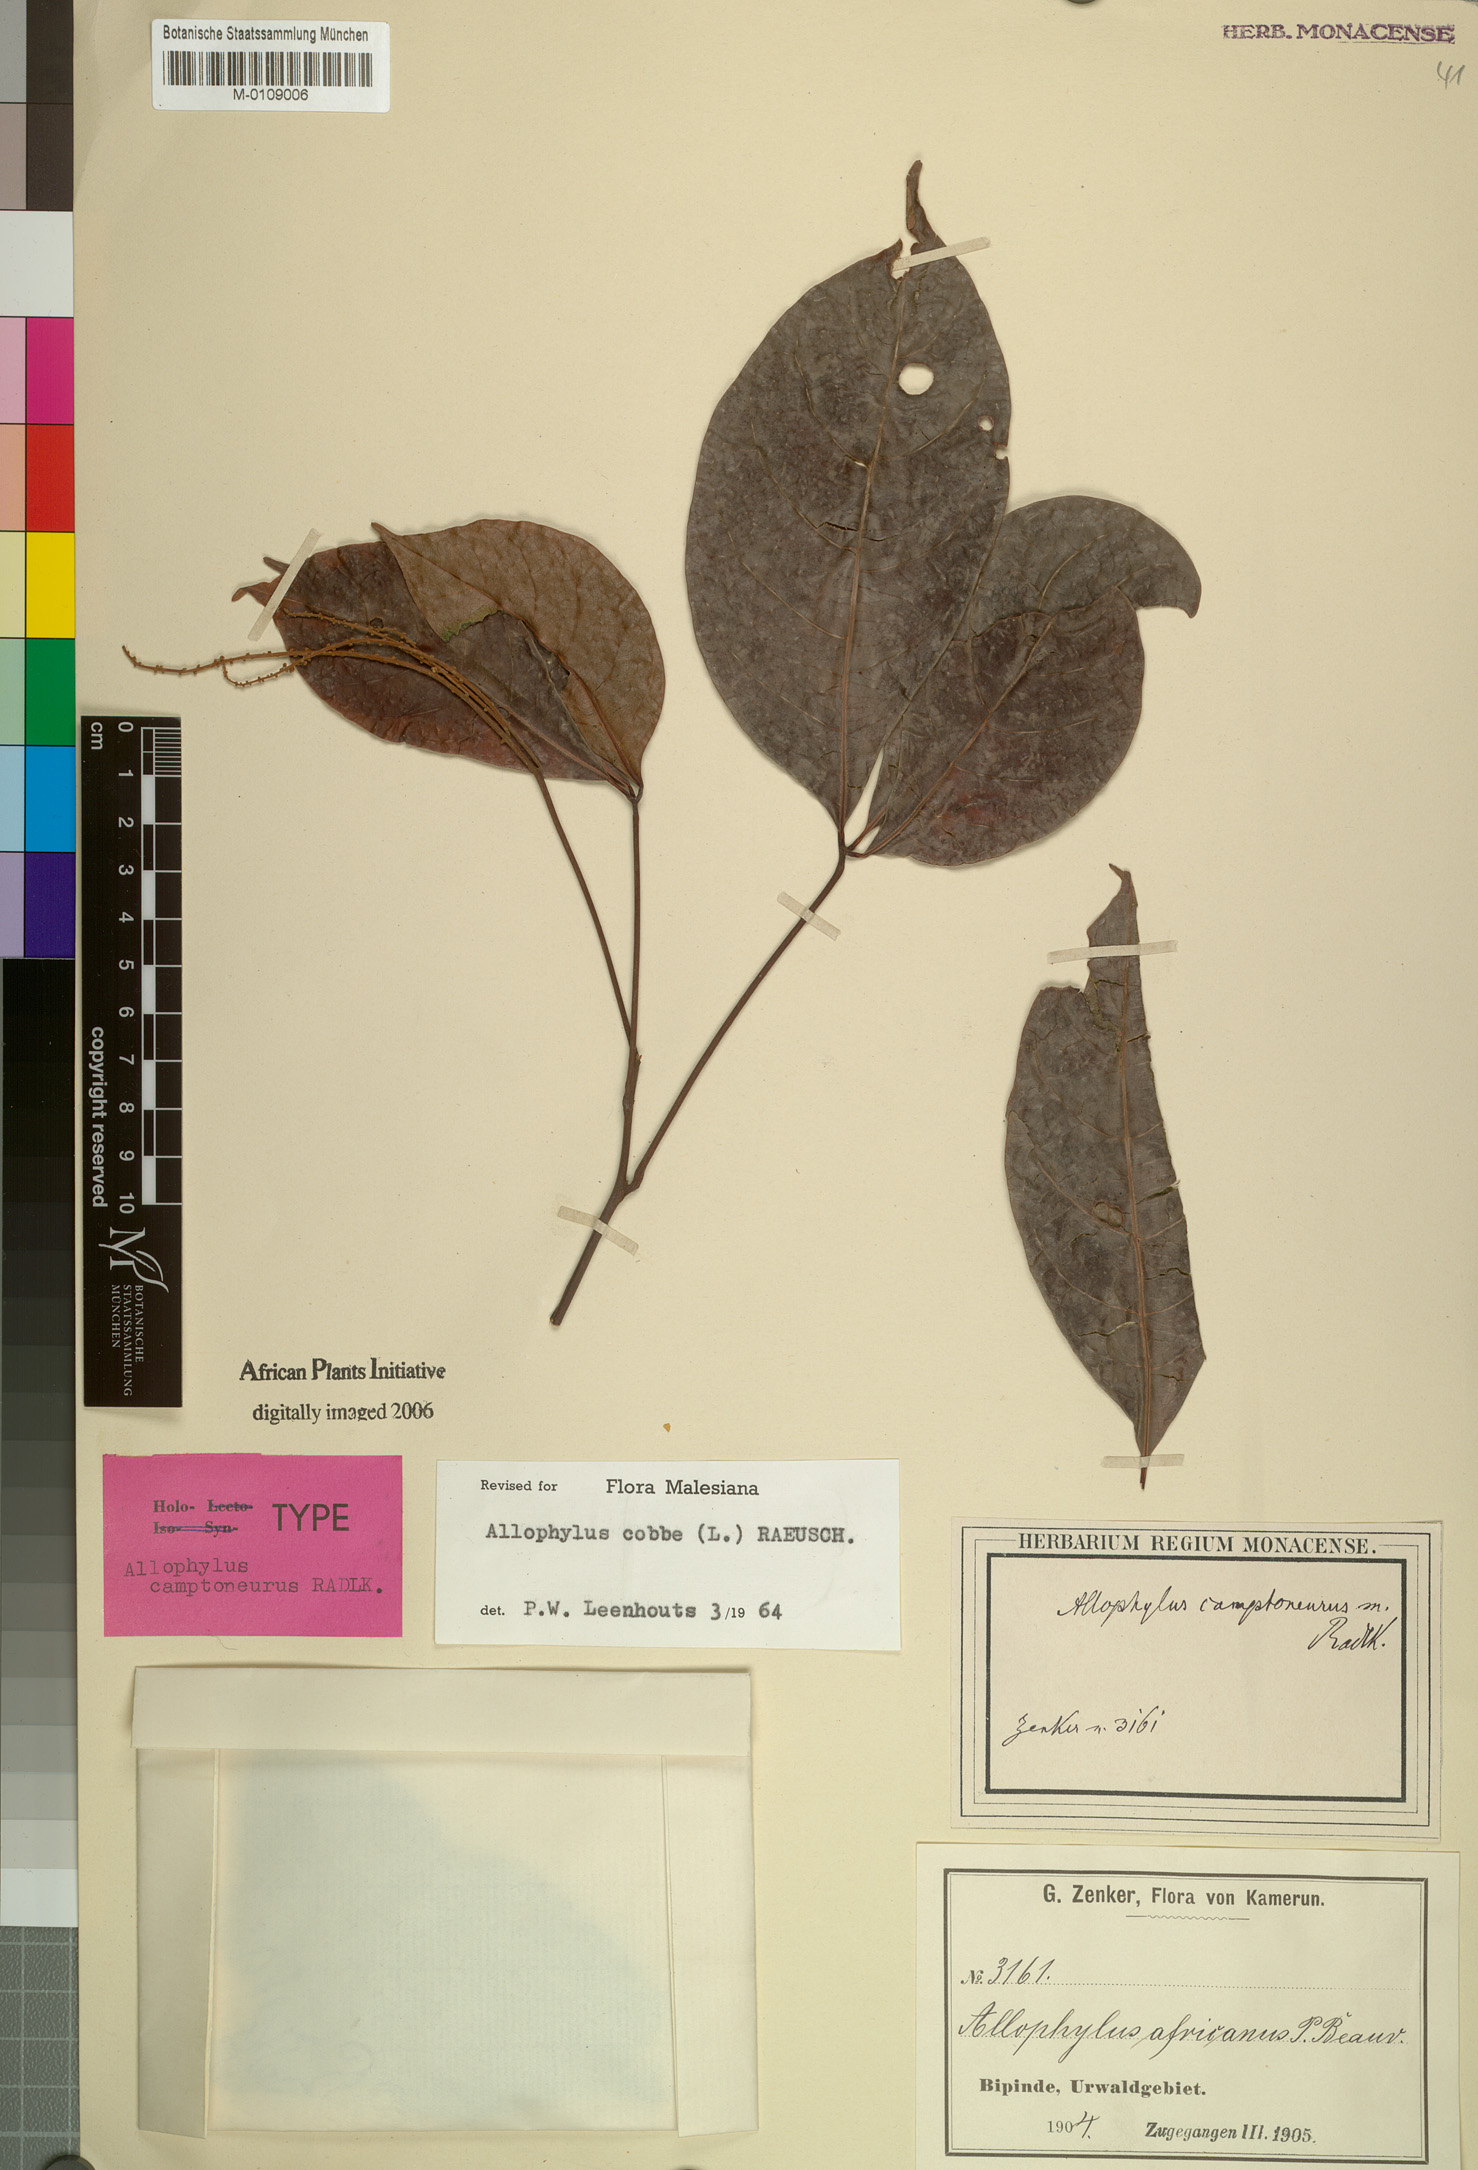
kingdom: Plantae
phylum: Tracheophyta
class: Magnoliopsida
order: Sapindales
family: Sapindaceae
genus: Allophylus
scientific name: Allophylus cobbe
